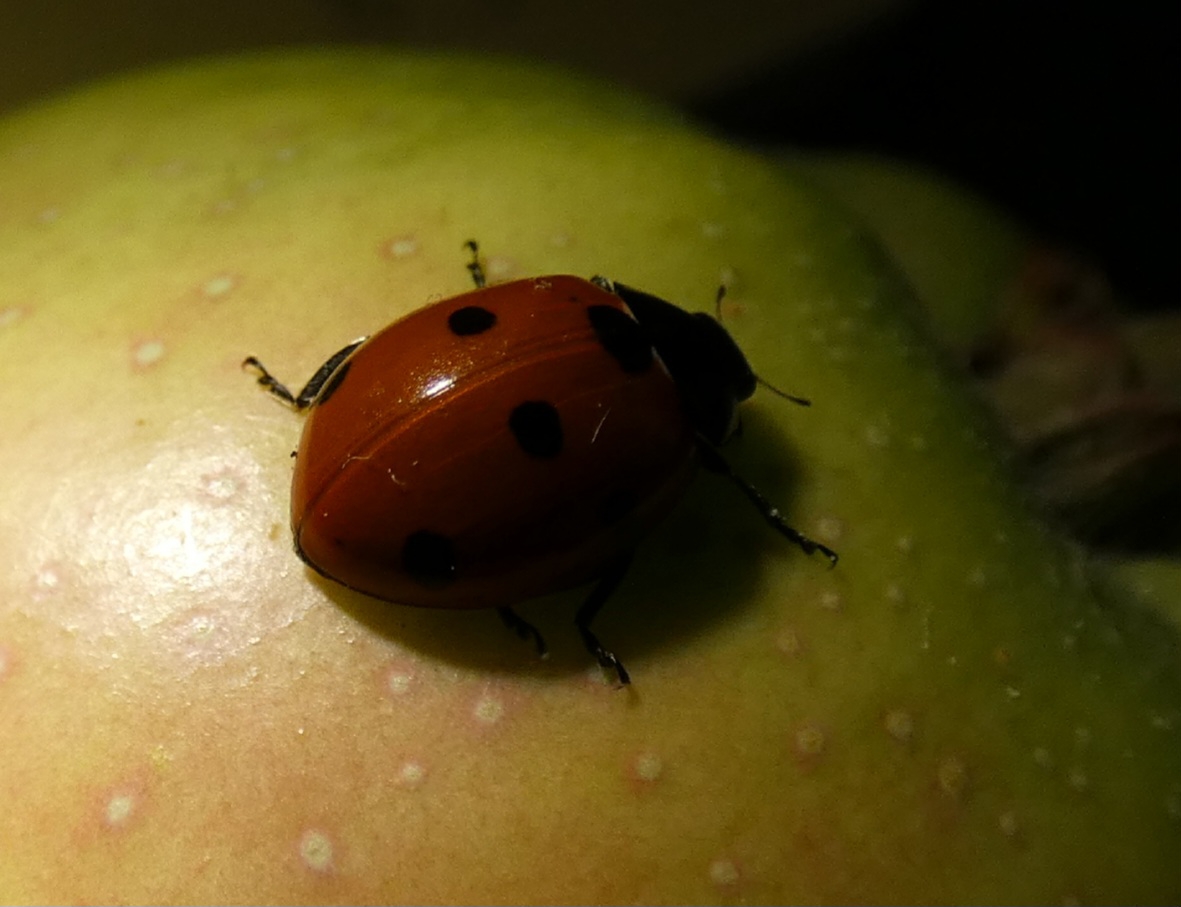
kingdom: Animalia
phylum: Arthropoda
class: Insecta
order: Coleoptera
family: Coccinellidae
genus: Coccinella
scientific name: Coccinella septempunctata
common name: Syvplettet mariehøne
